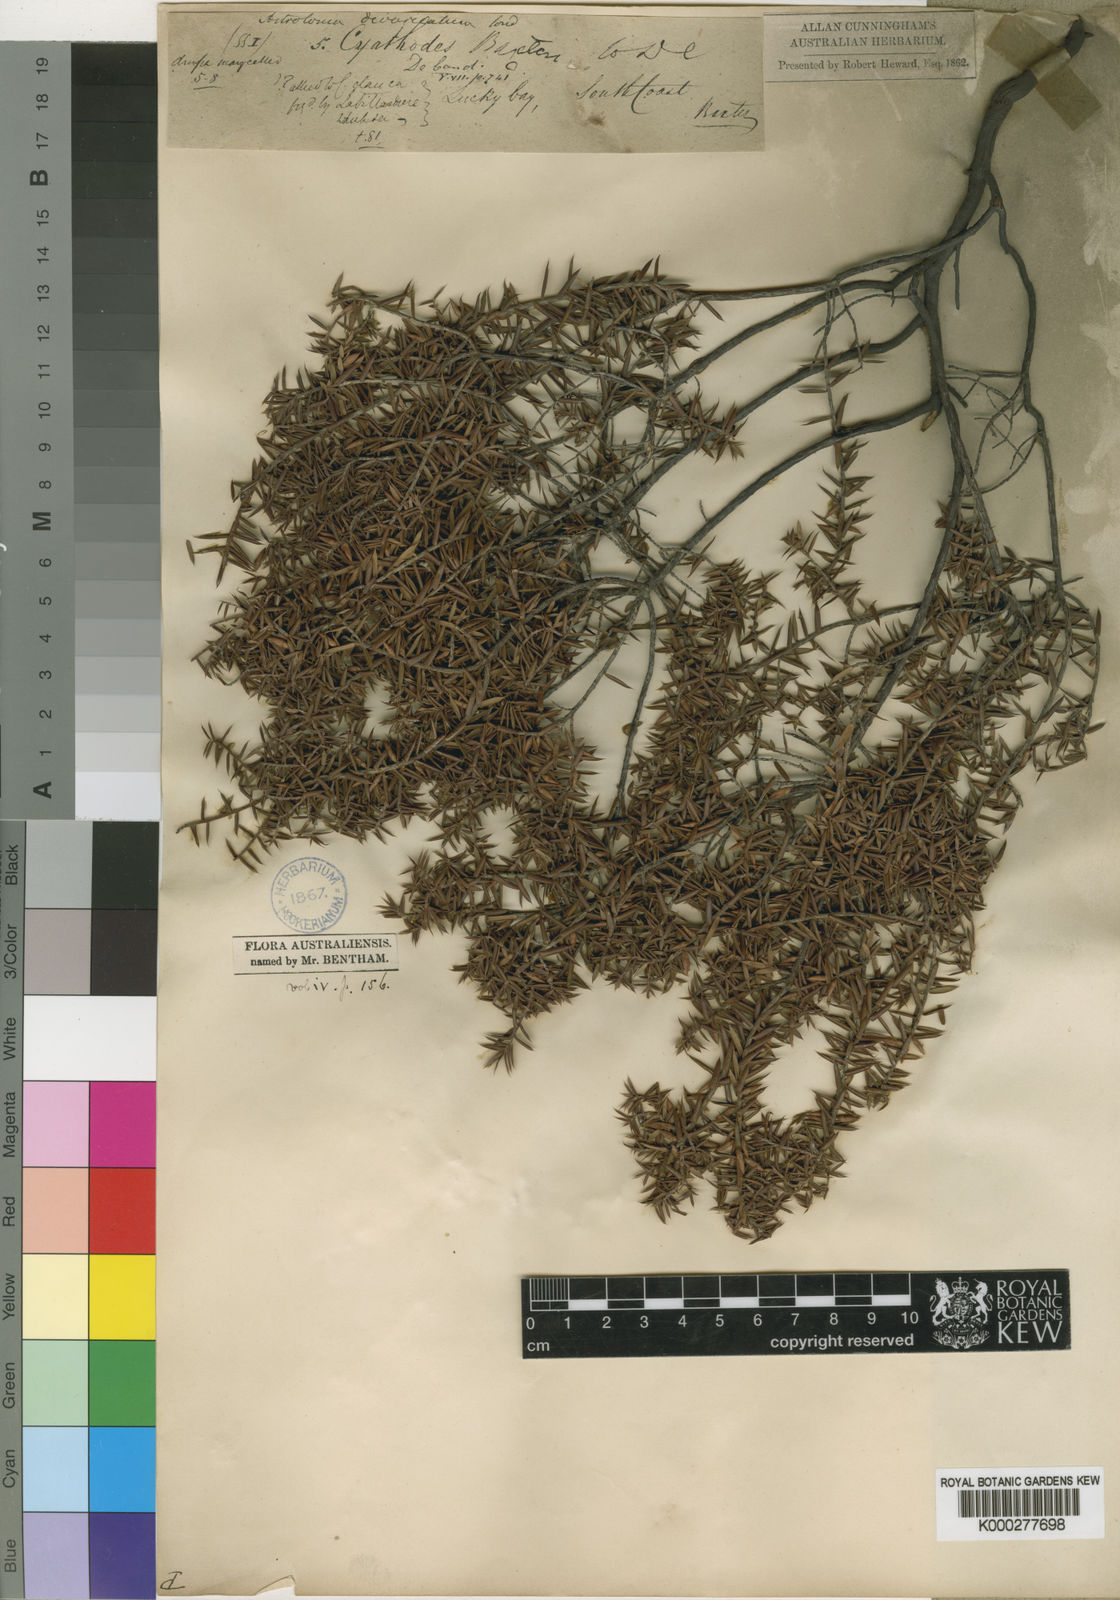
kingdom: Plantae
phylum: Tracheophyta
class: Magnoliopsida
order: Ericales
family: Ericaceae
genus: Styphelia
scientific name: Styphelia epacridis
